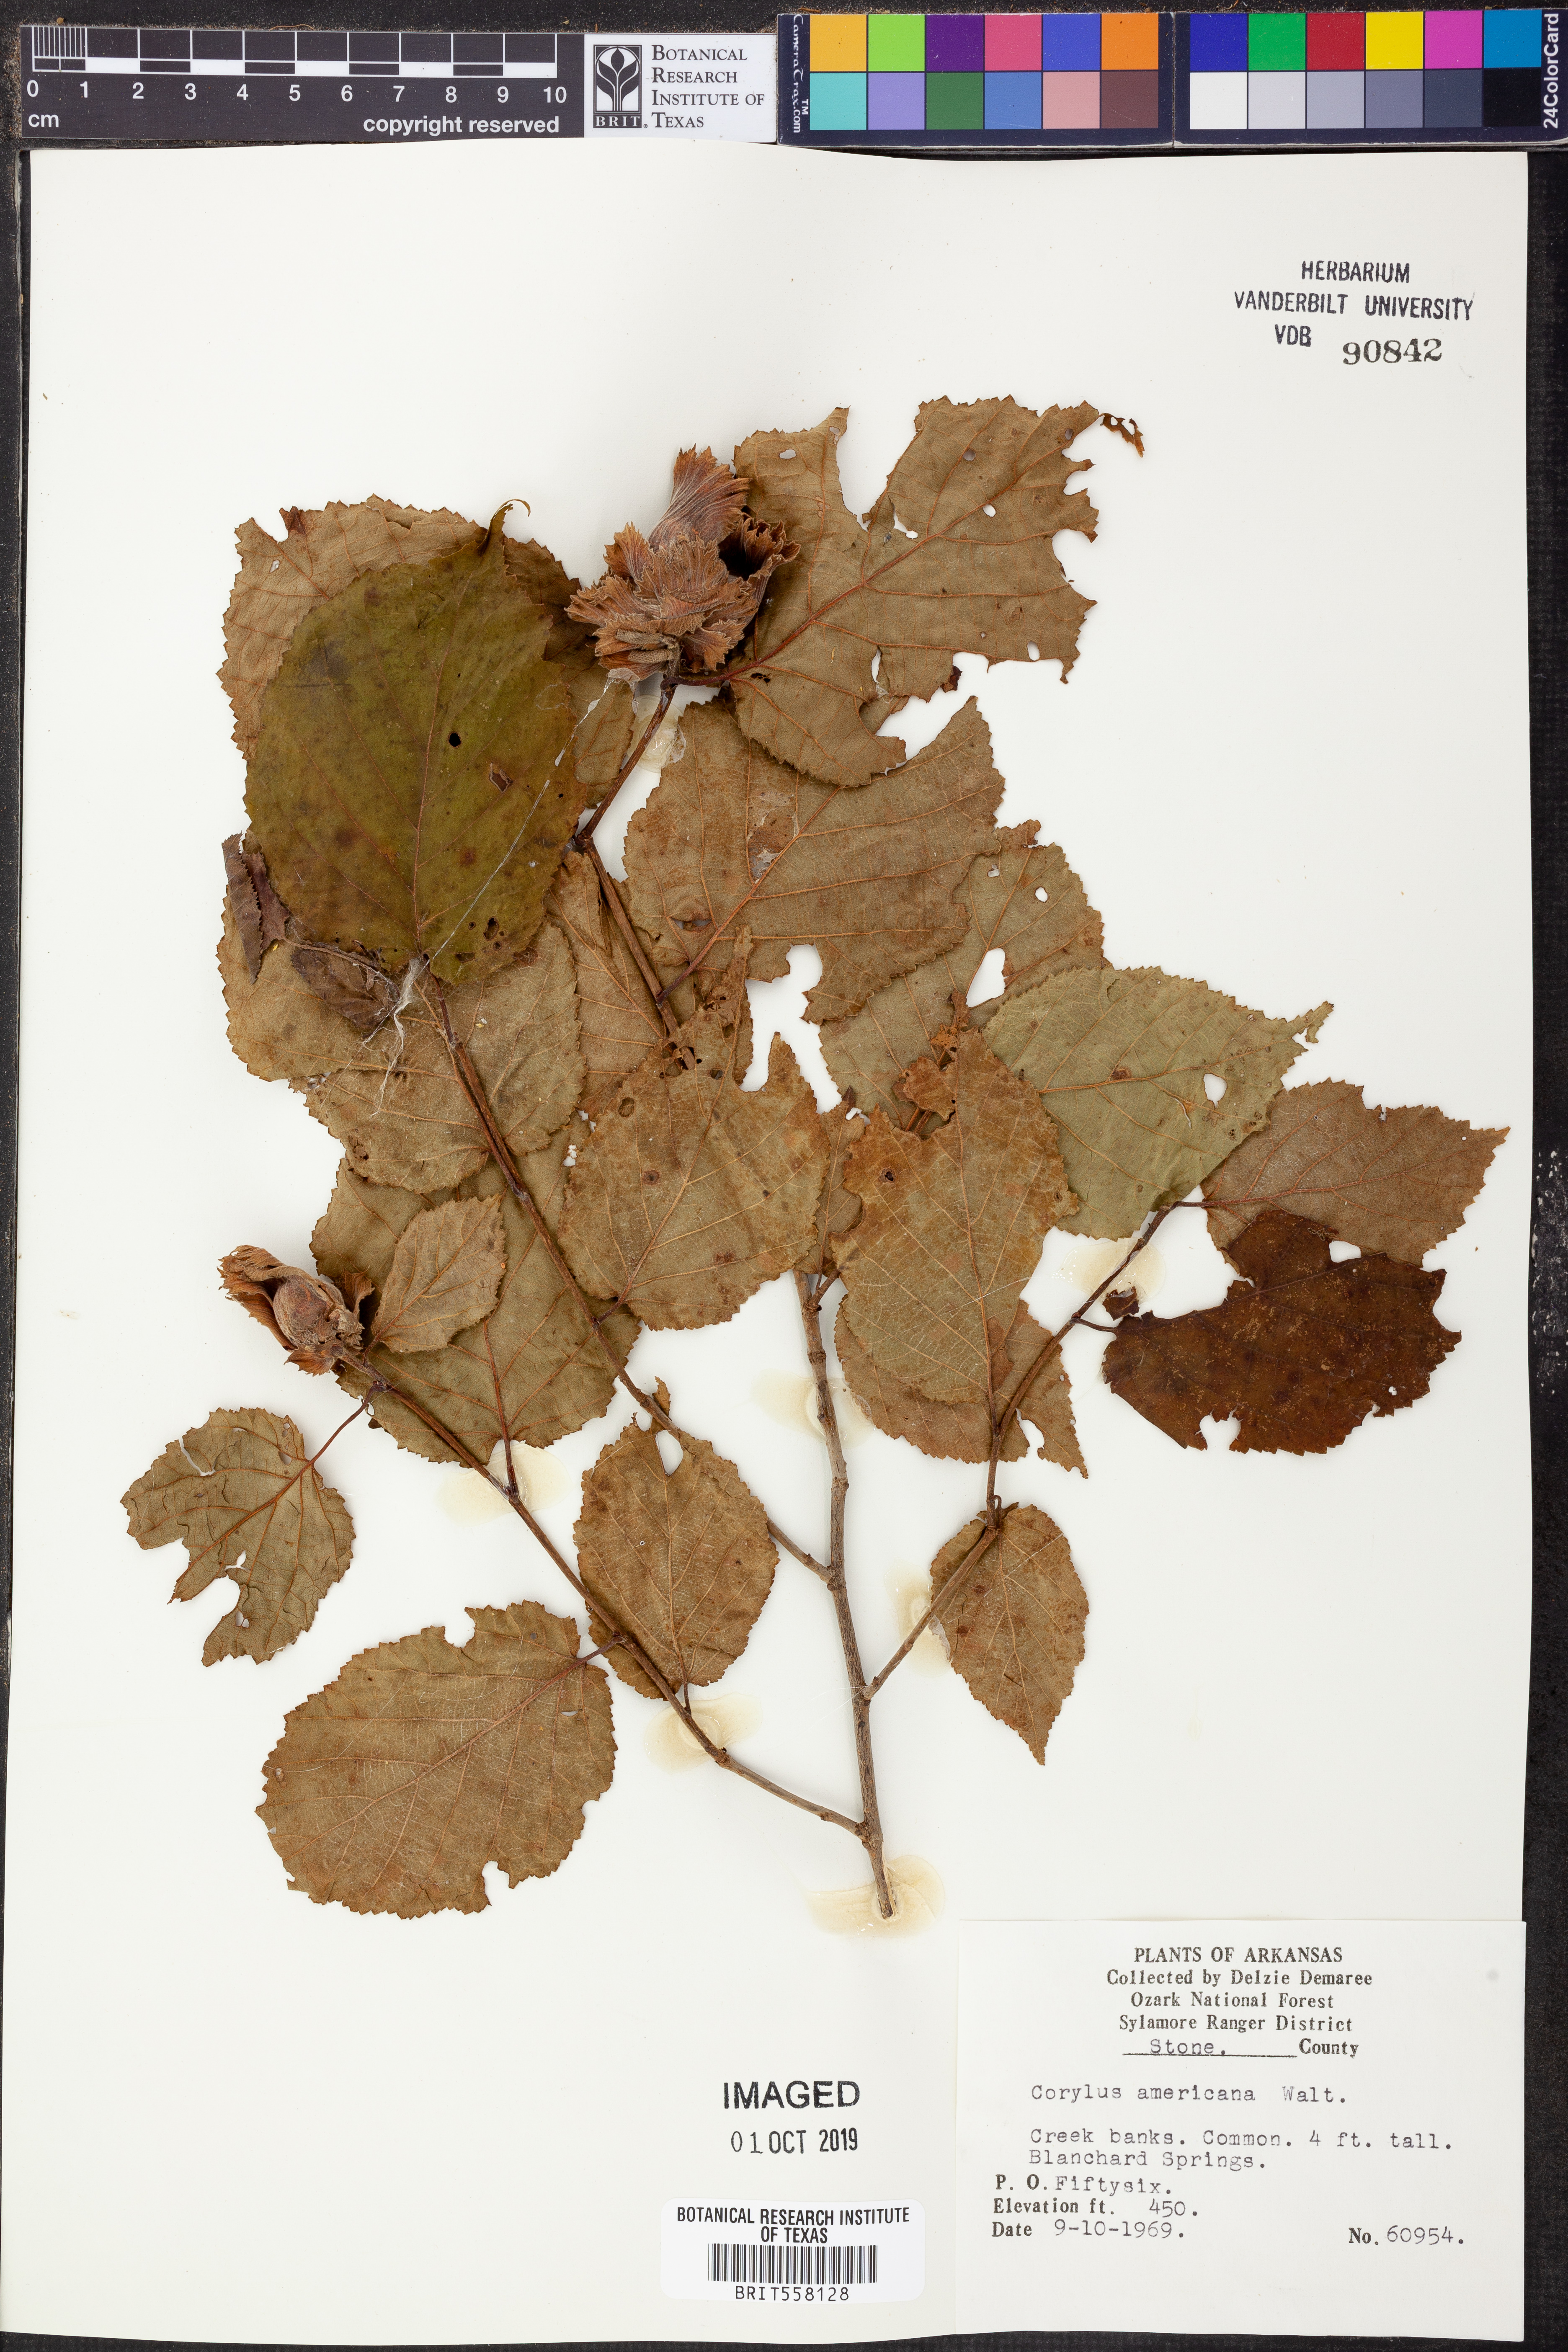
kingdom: Plantae
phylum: Tracheophyta
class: Magnoliopsida
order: Fagales
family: Betulaceae
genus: Corylus
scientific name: Corylus americana
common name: American hazel
